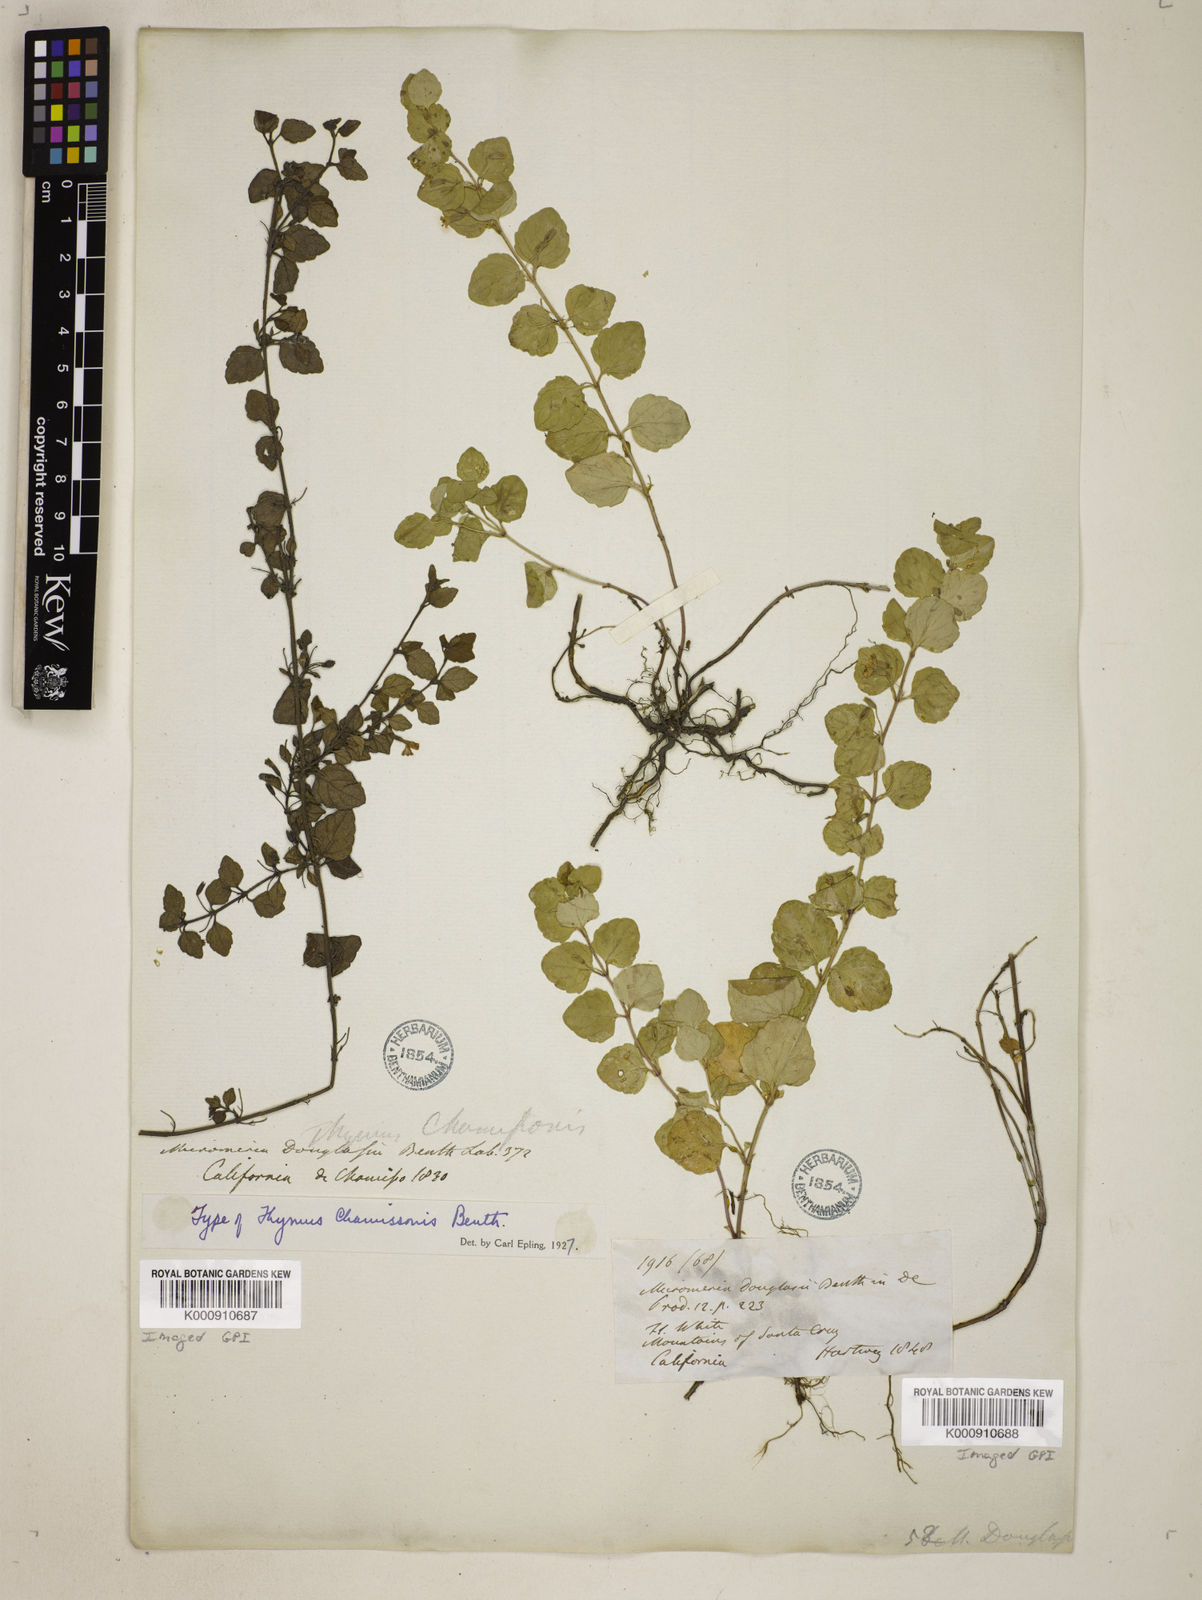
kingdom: Plantae
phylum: Tracheophyta
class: Magnoliopsida
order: Lamiales
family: Lamiaceae
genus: Micromeria
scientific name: Micromeria douglasii
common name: Yerba buena
